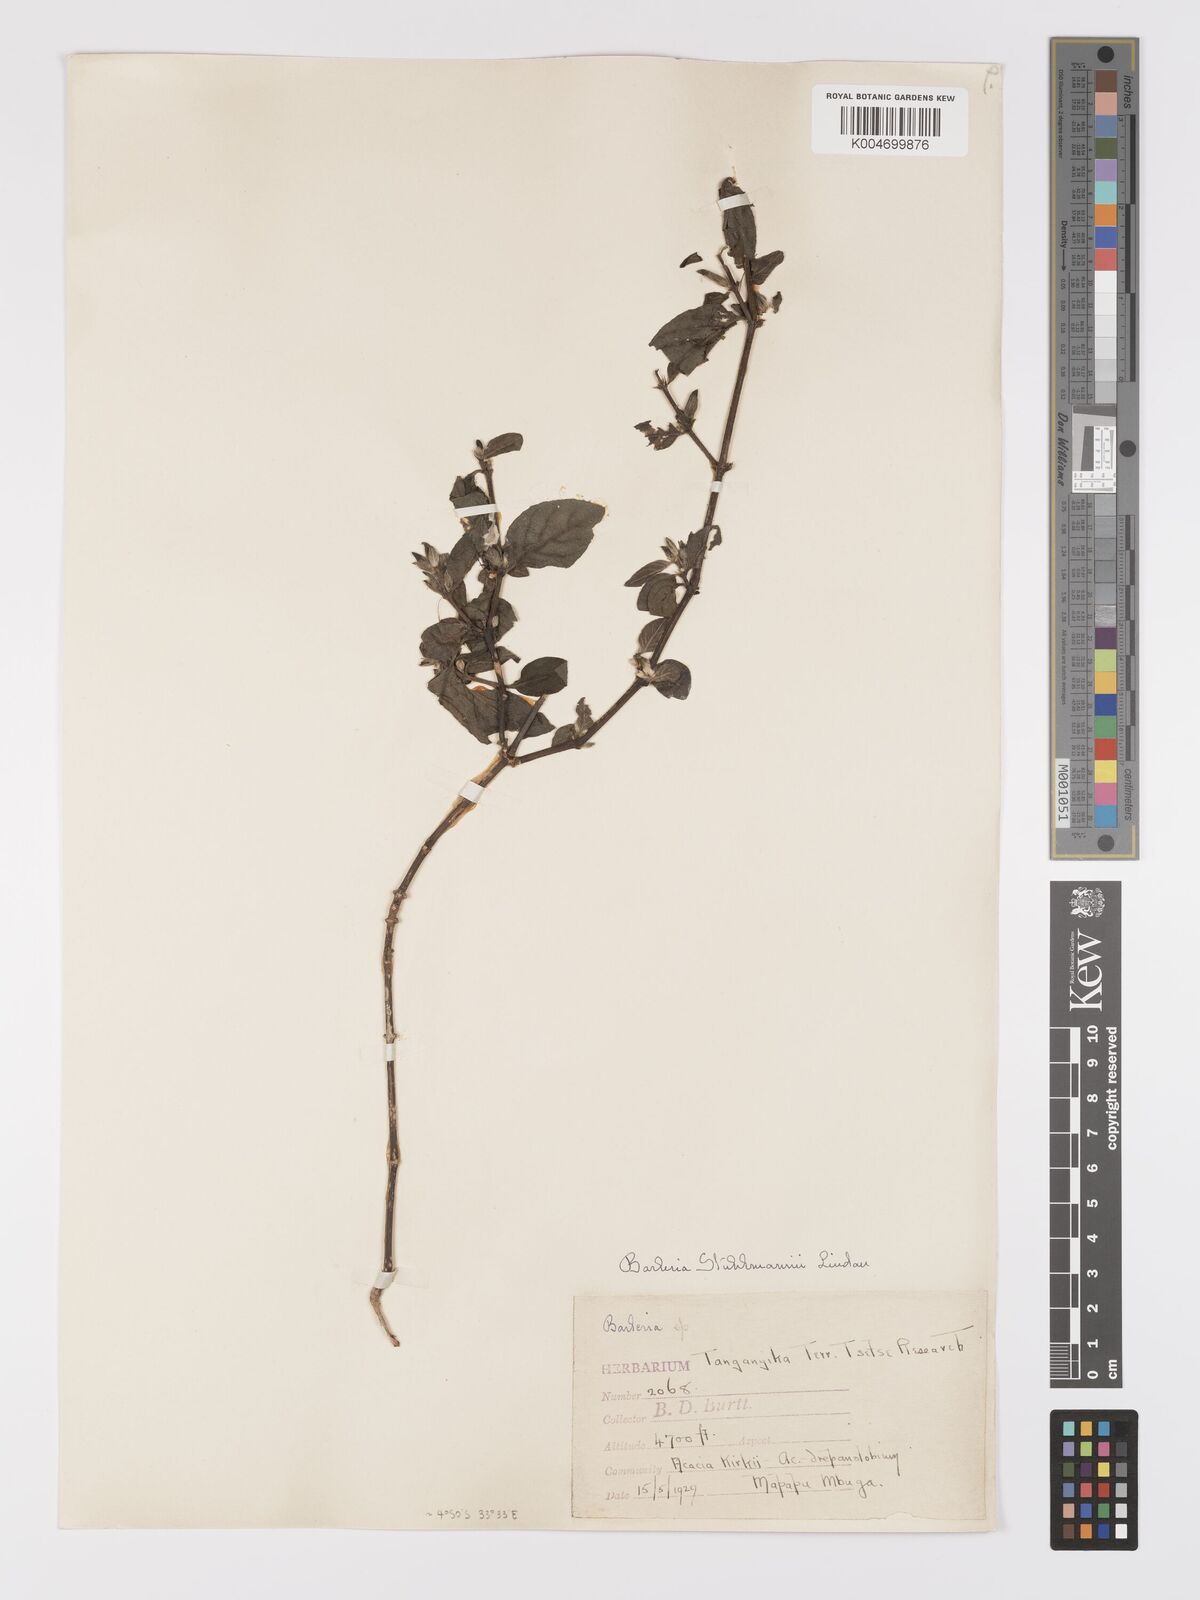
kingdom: Plantae
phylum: Tracheophyta
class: Magnoliopsida
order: Lamiales
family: Acanthaceae
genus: Barleria
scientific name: Barleria ventricosa
